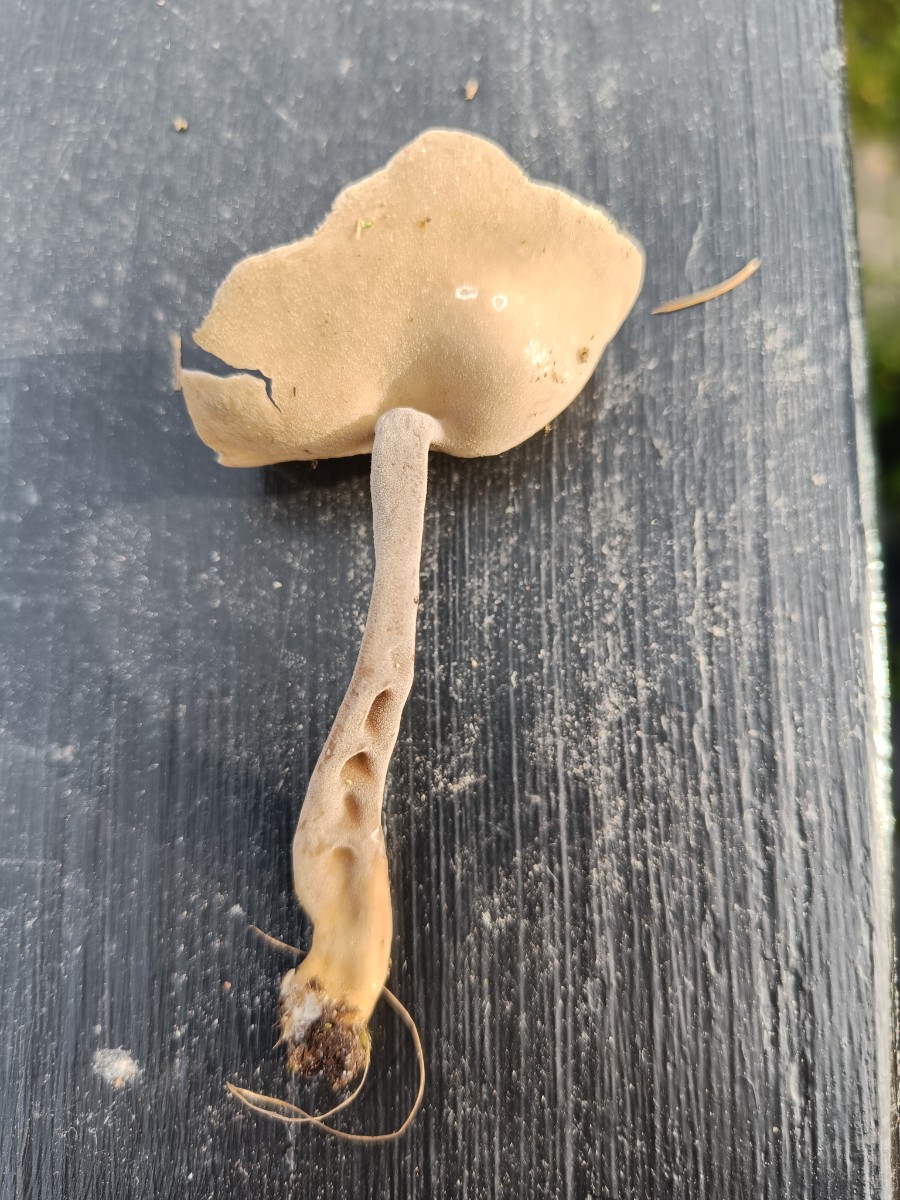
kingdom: Fungi
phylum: Ascomycota
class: Pezizomycetes
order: Pezizales
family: Helvellaceae
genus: Helvella
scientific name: Helvella
